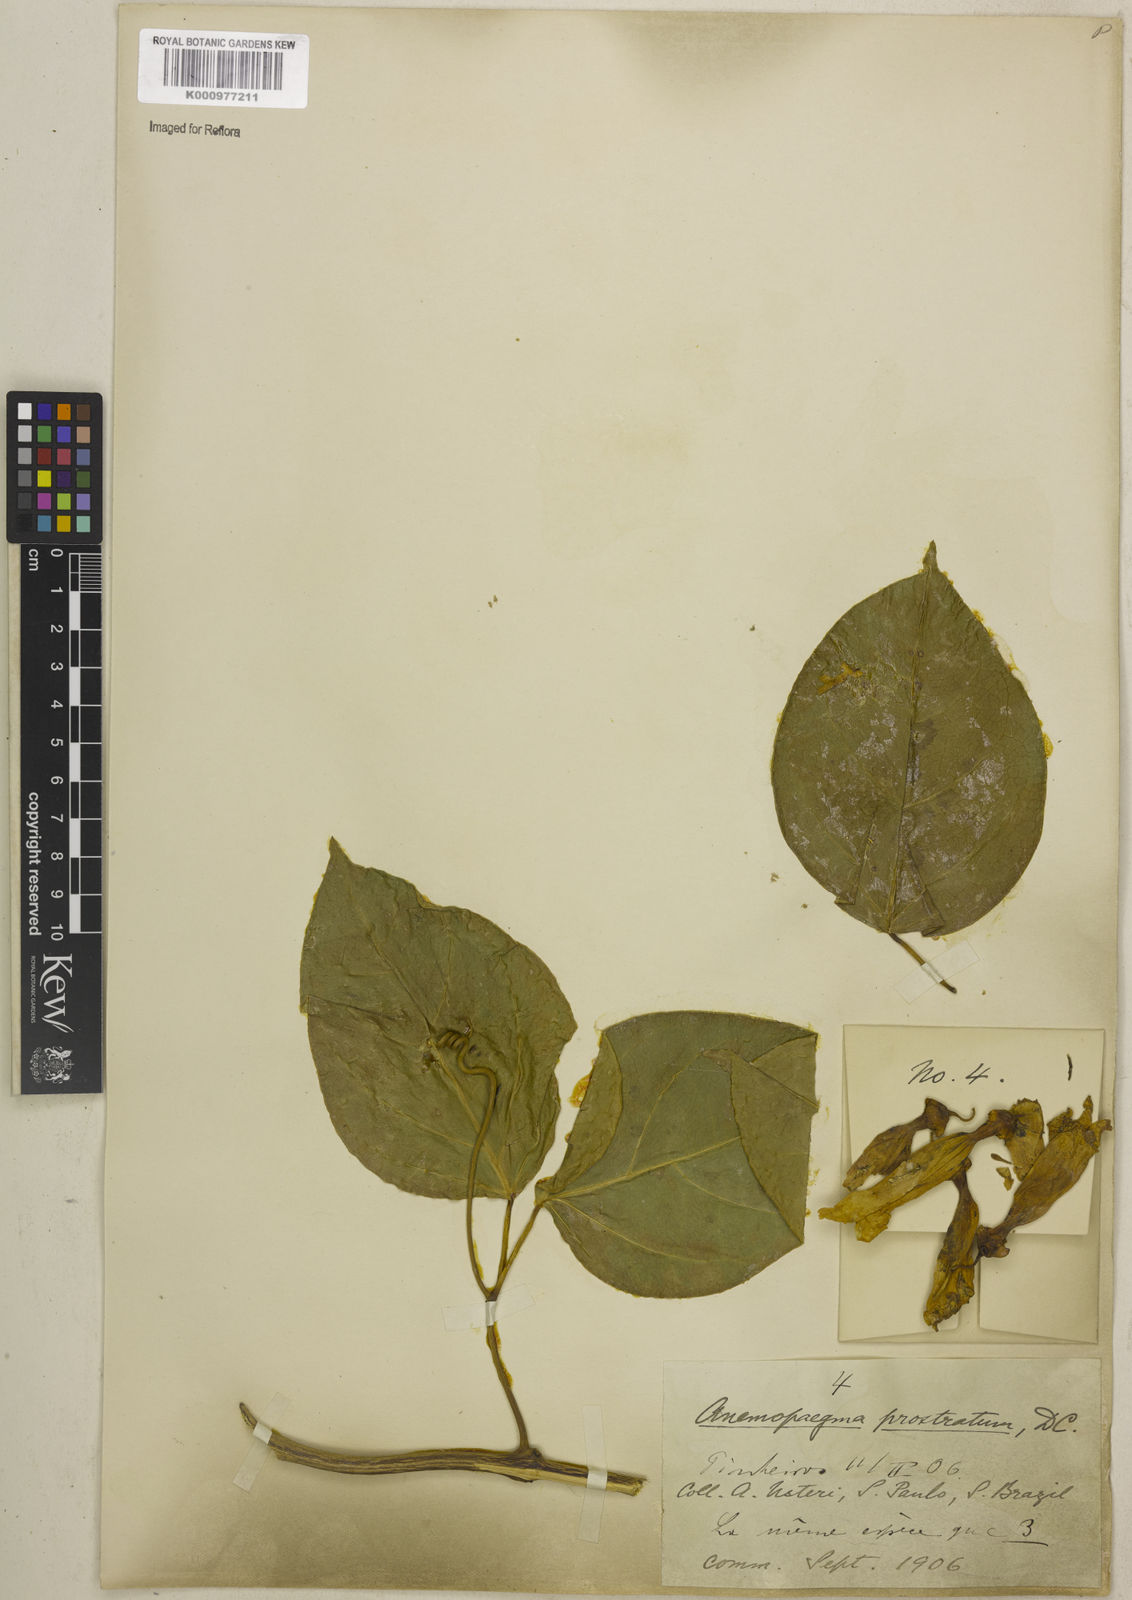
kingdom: Plantae
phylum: Tracheophyta
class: Magnoliopsida
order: Lamiales
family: Bignoniaceae
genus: Anemopaegma
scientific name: Anemopaegma prostratum
